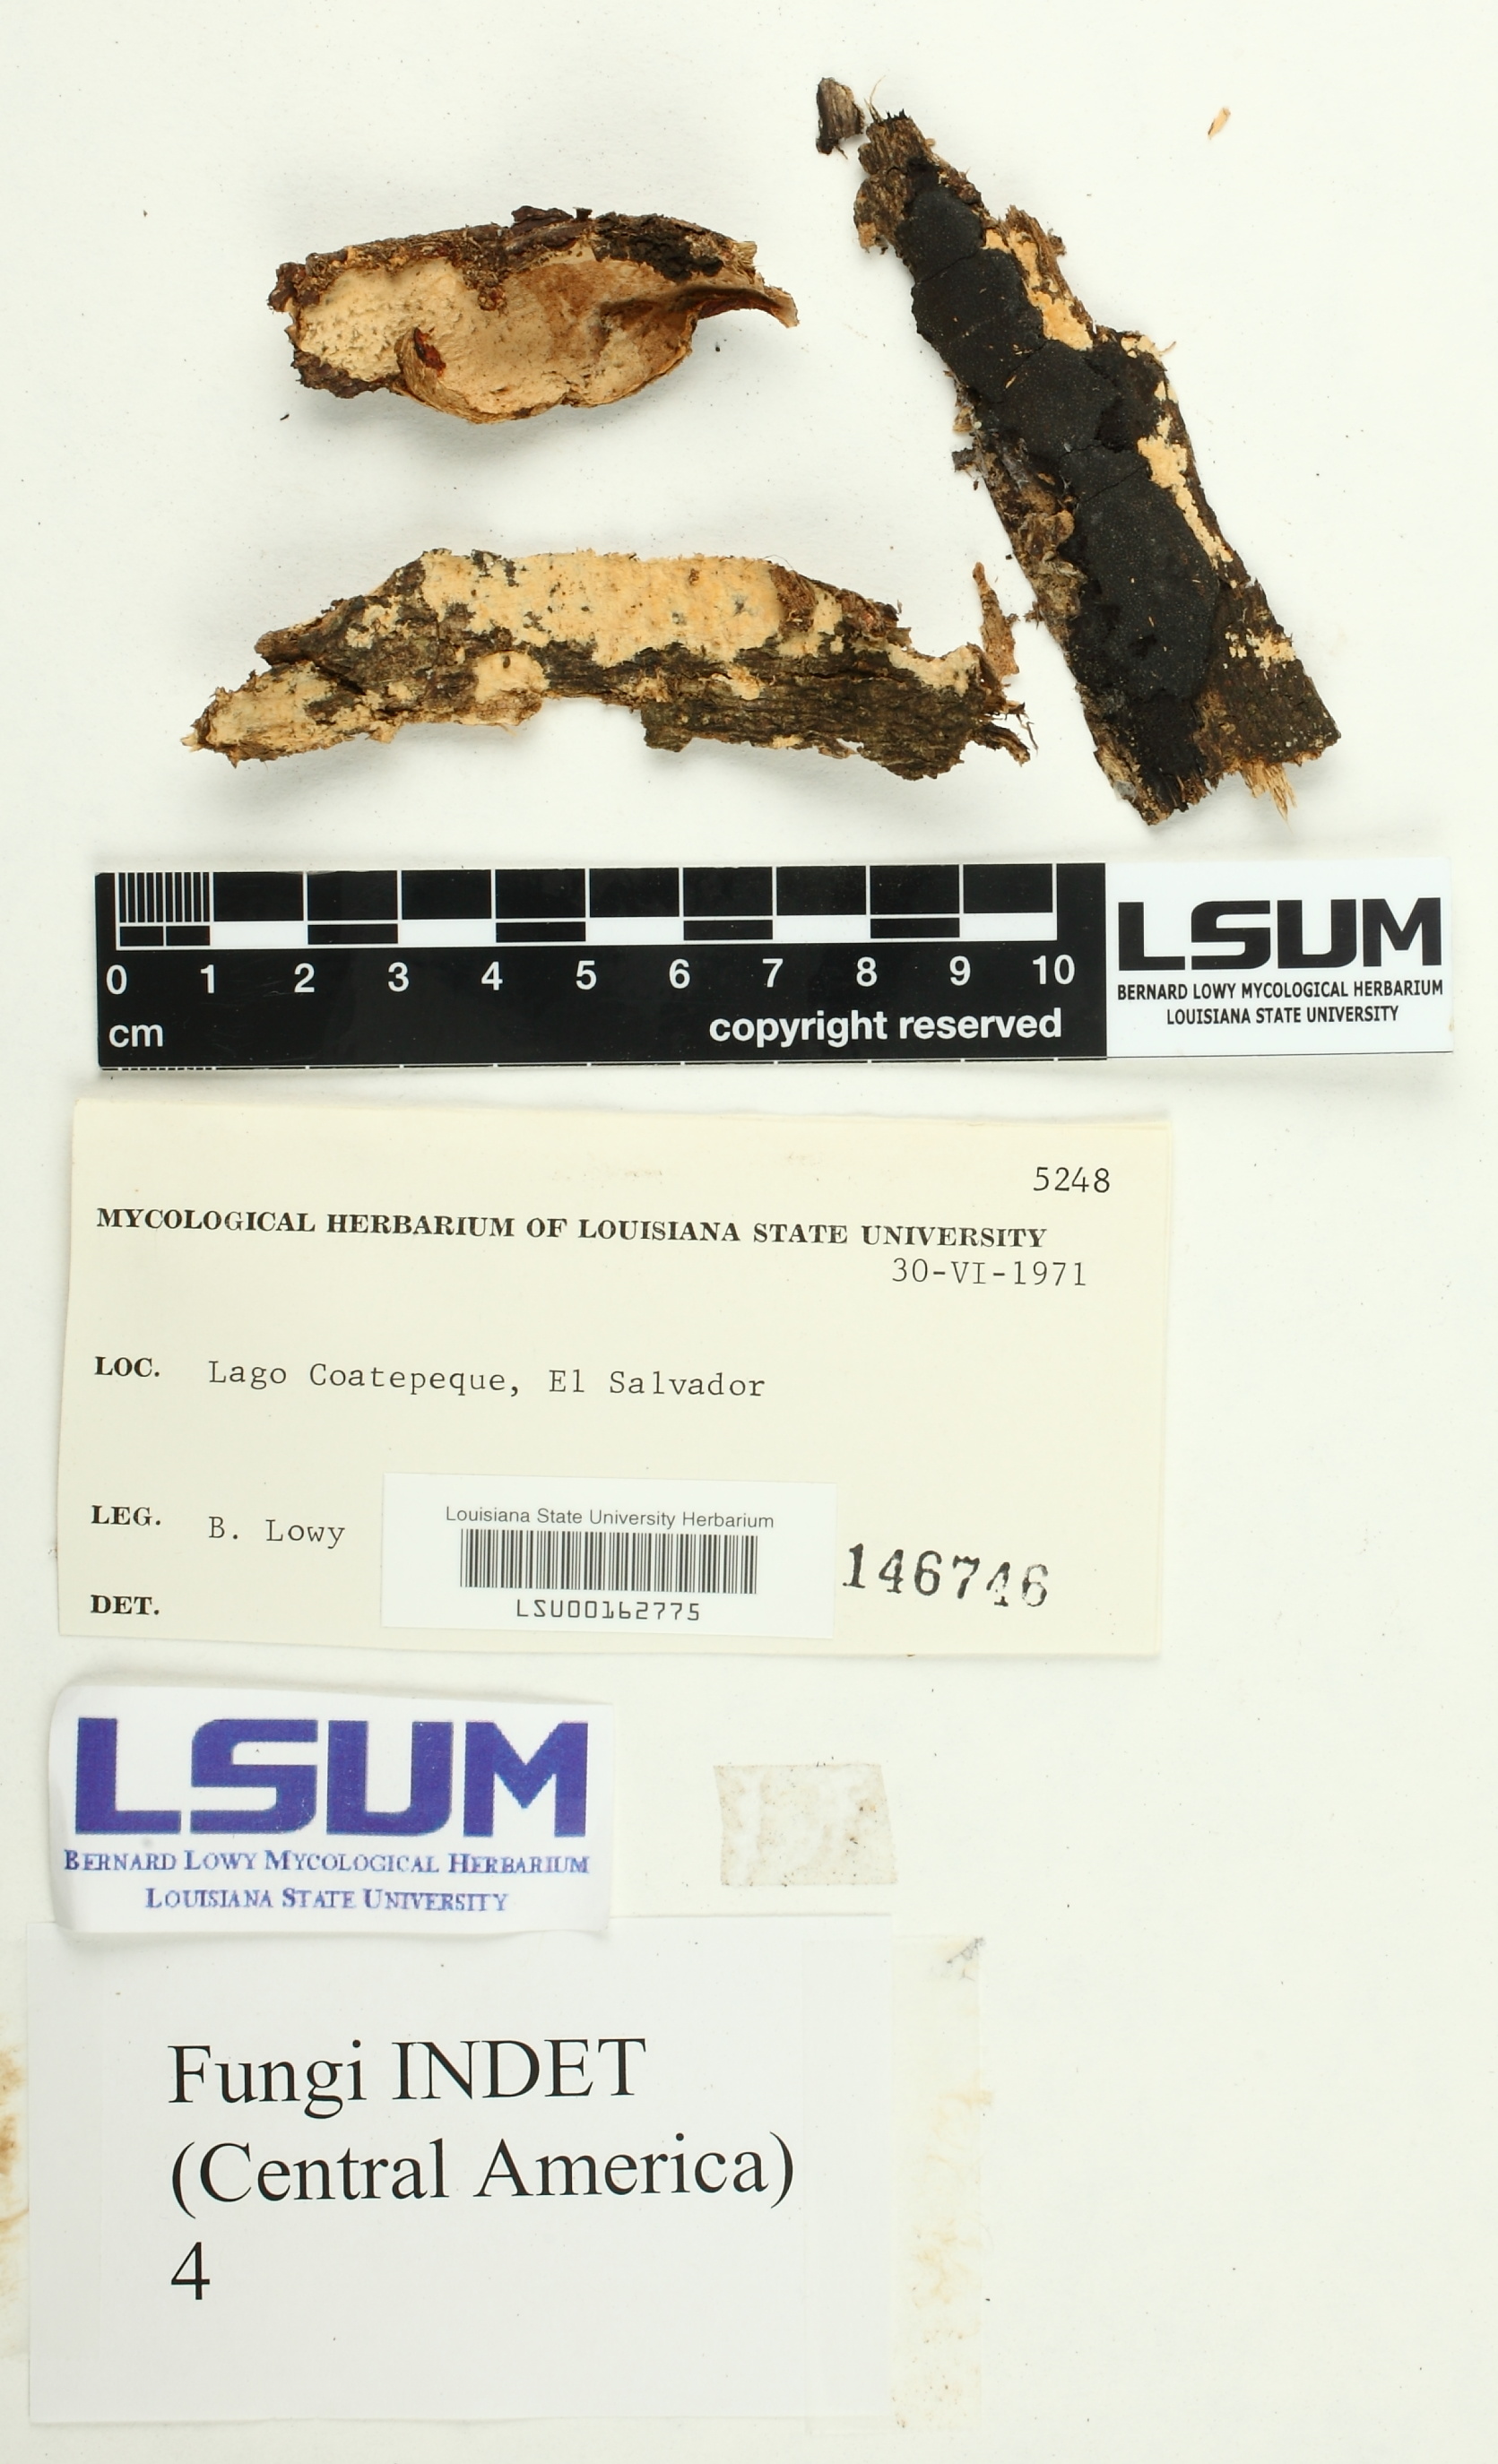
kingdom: Fungi
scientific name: Fungi
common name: Fungi
